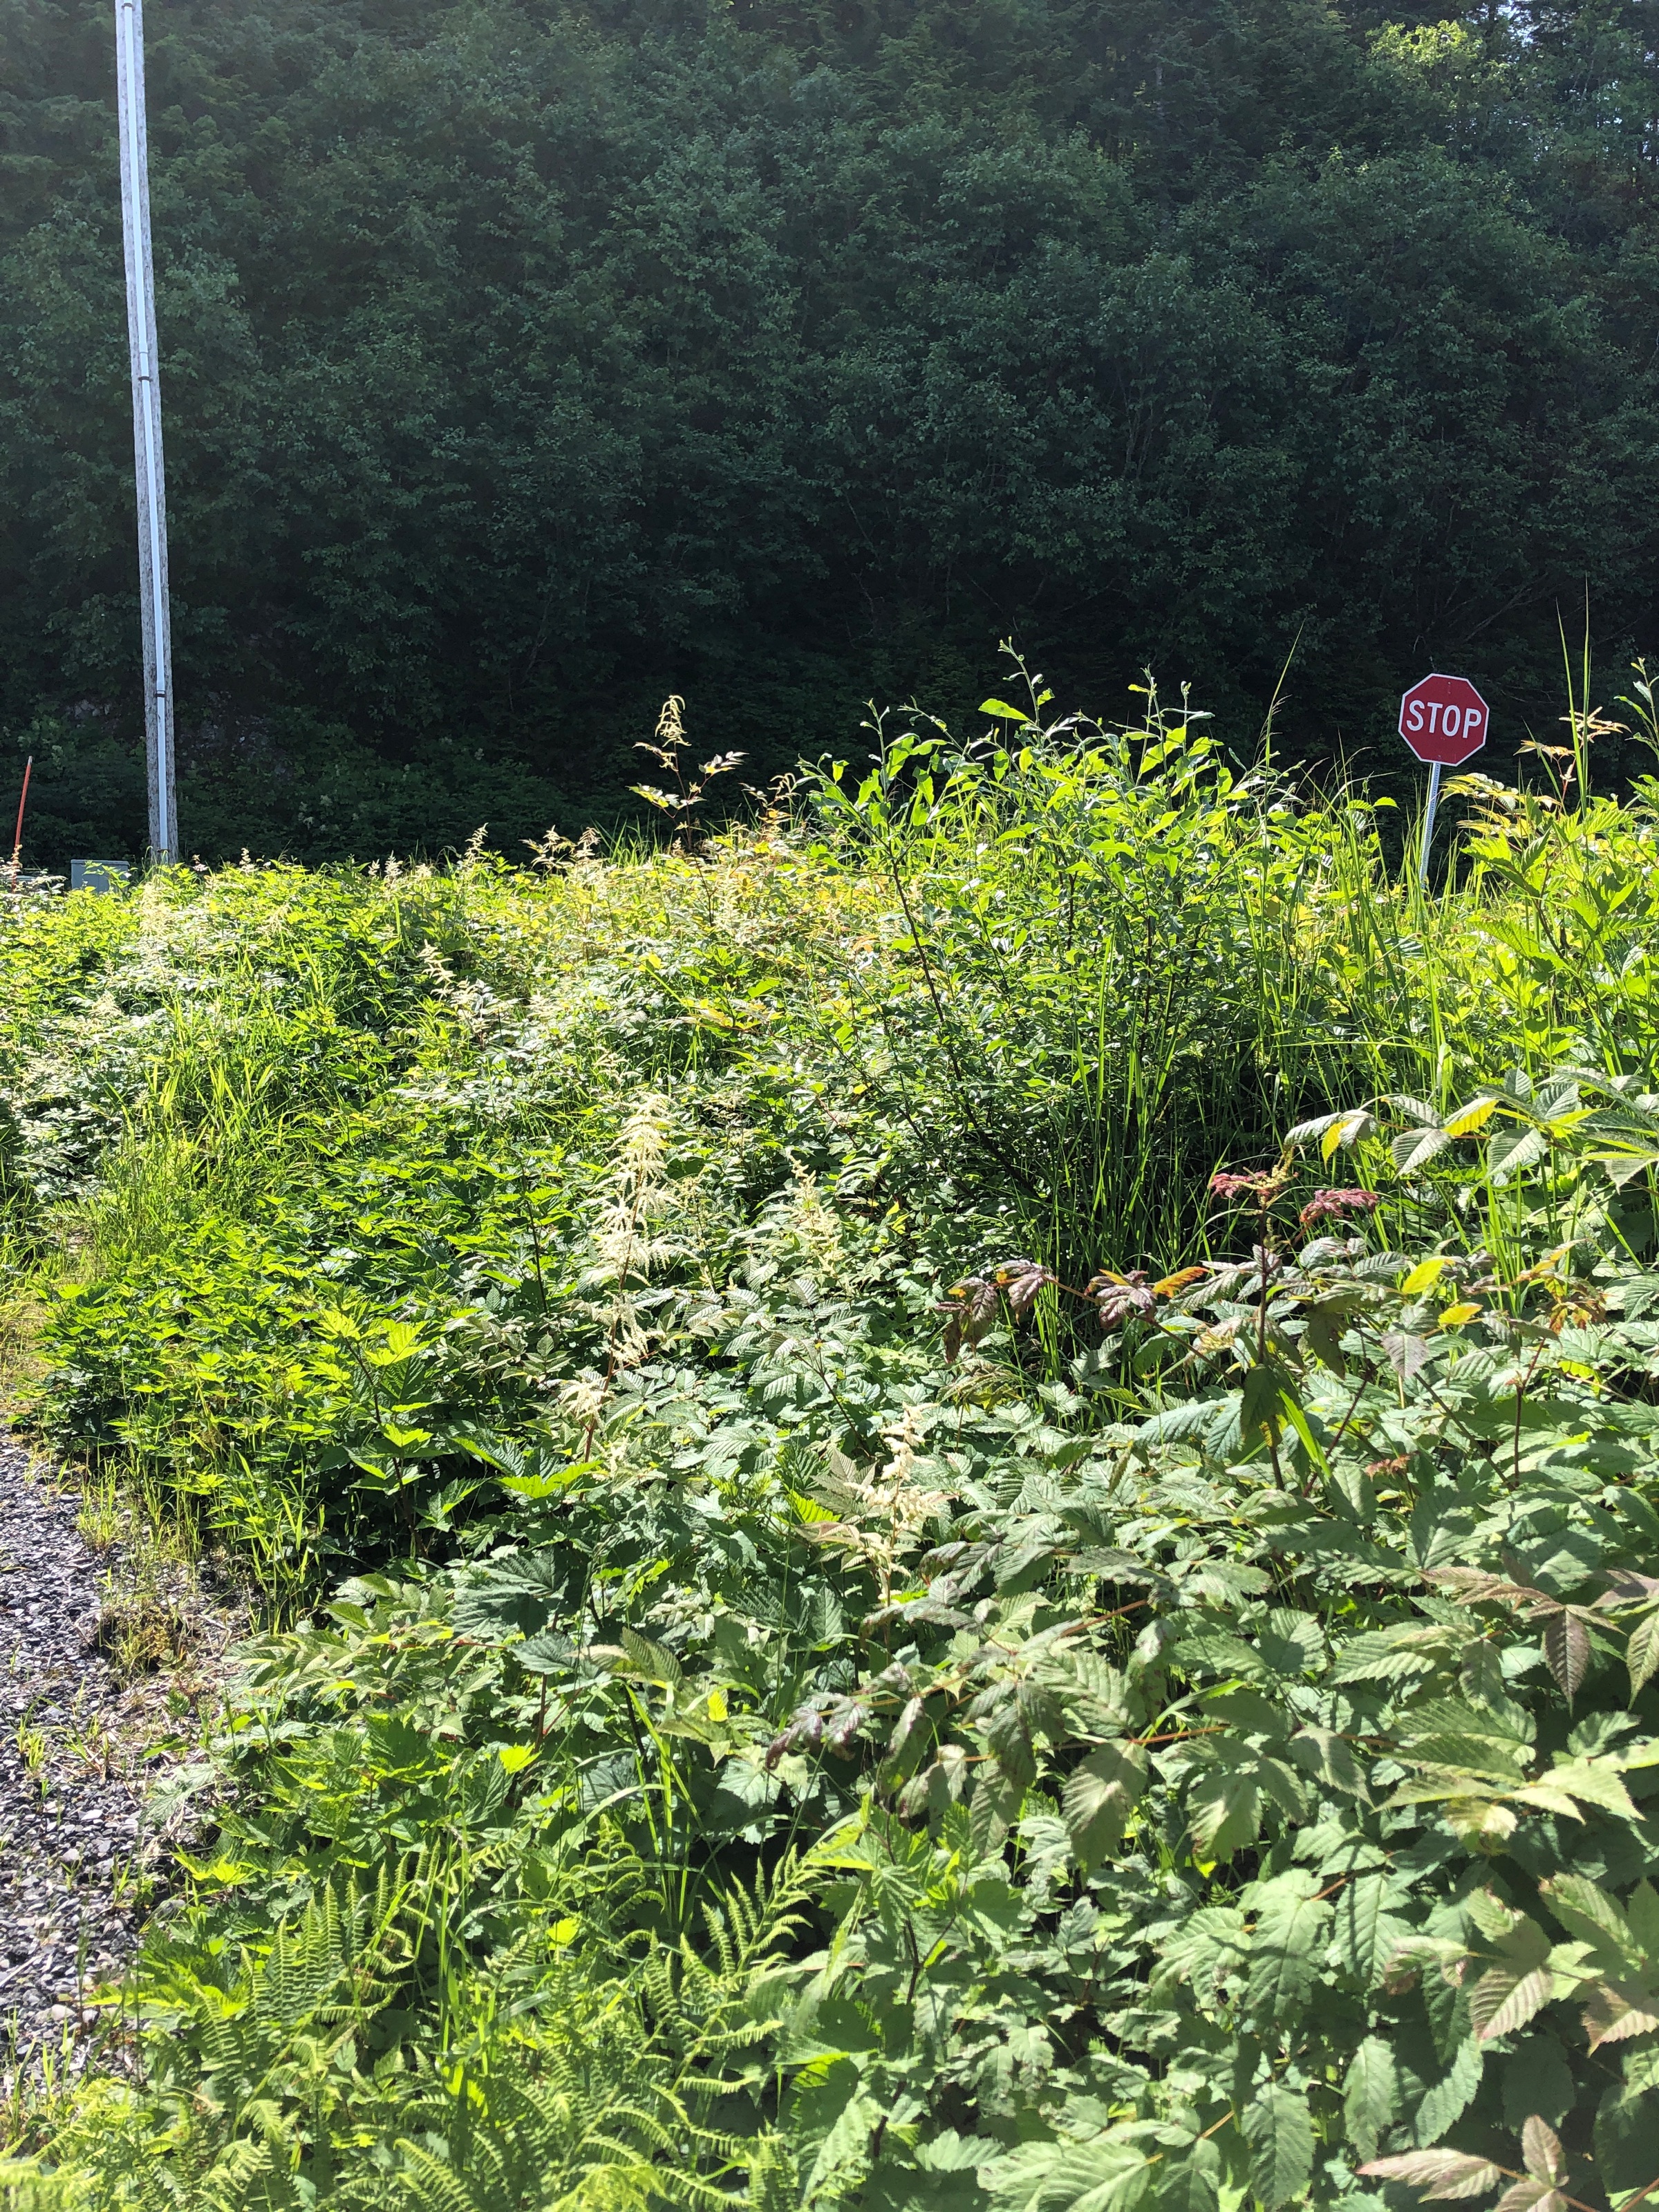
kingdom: Plantae
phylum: Tracheophyta
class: Liliopsida
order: Poales
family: Poaceae
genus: Phalaris
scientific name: Phalaris arundinacea
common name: Reed canarygrass
